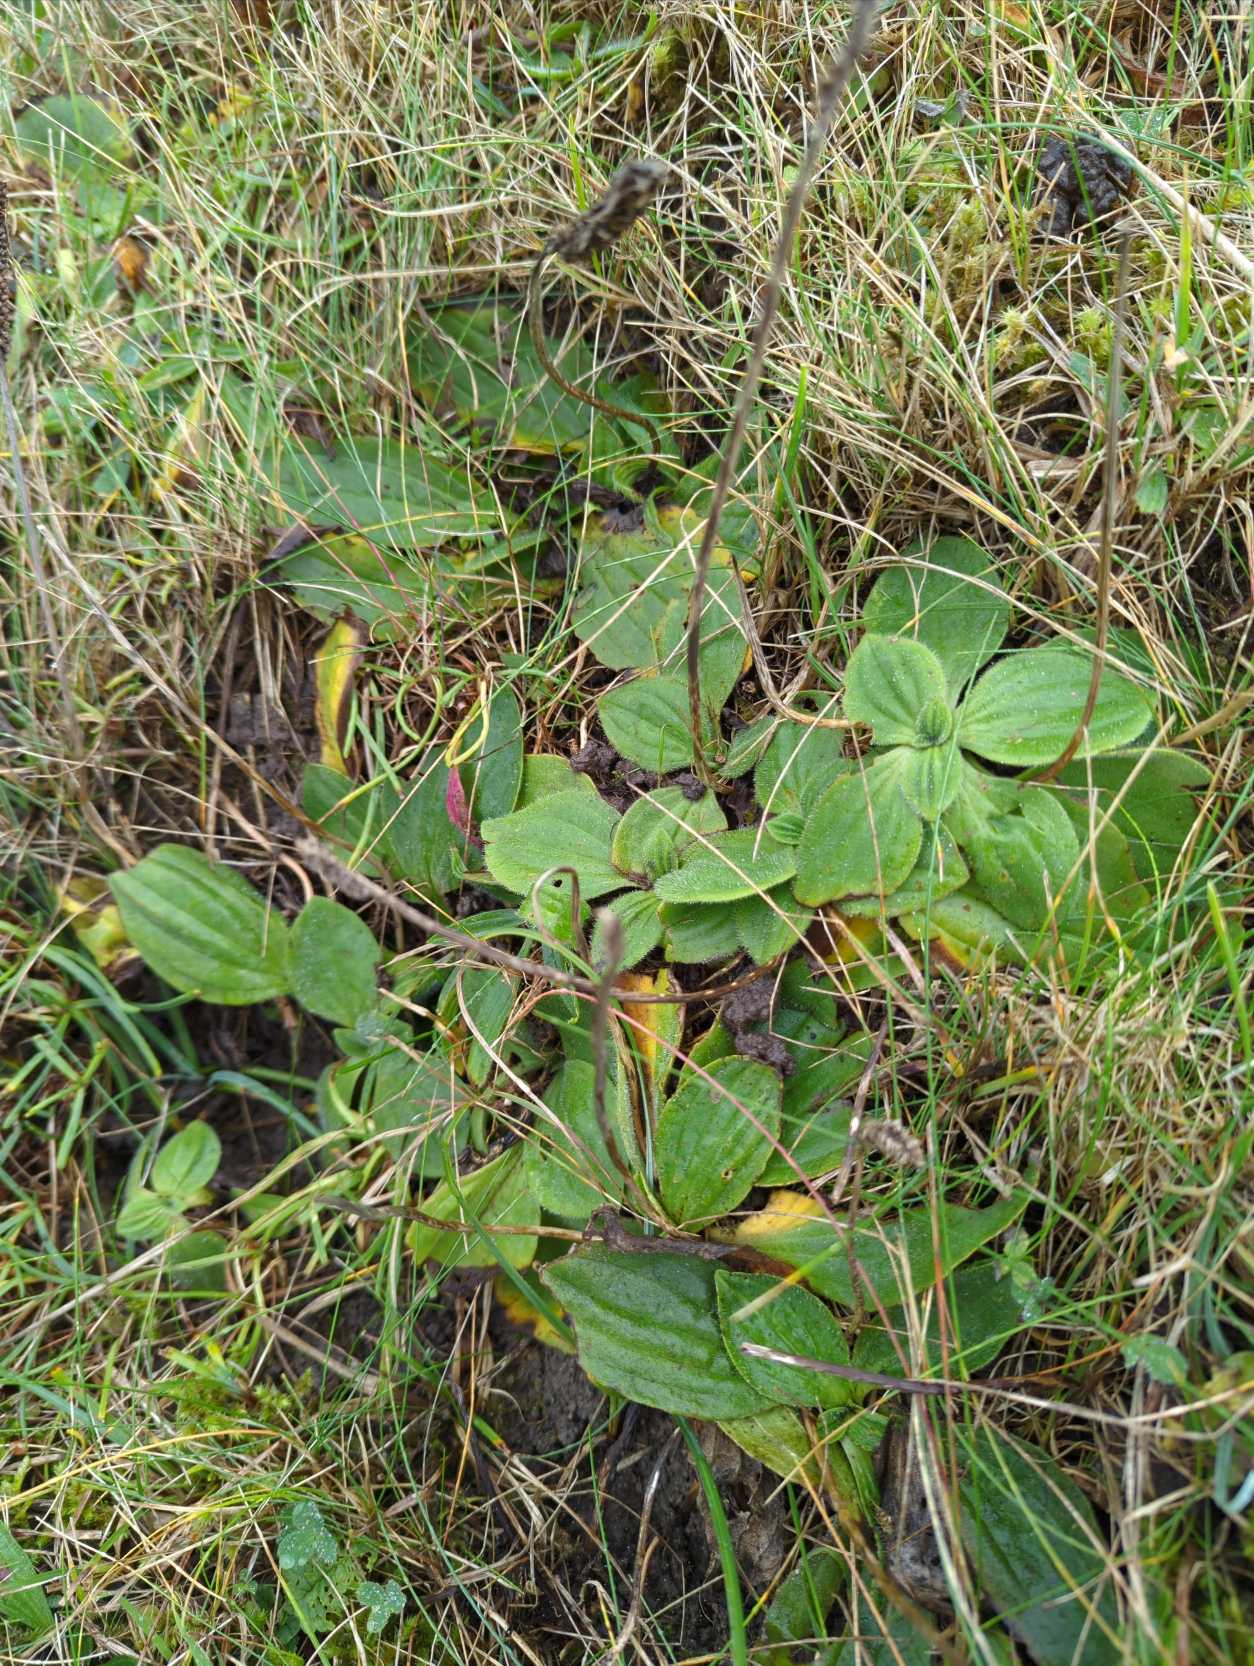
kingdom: Plantae
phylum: Tracheophyta
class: Magnoliopsida
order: Lamiales
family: Plantaginaceae
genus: Plantago
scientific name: Plantago media
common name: Dunet vejbred
